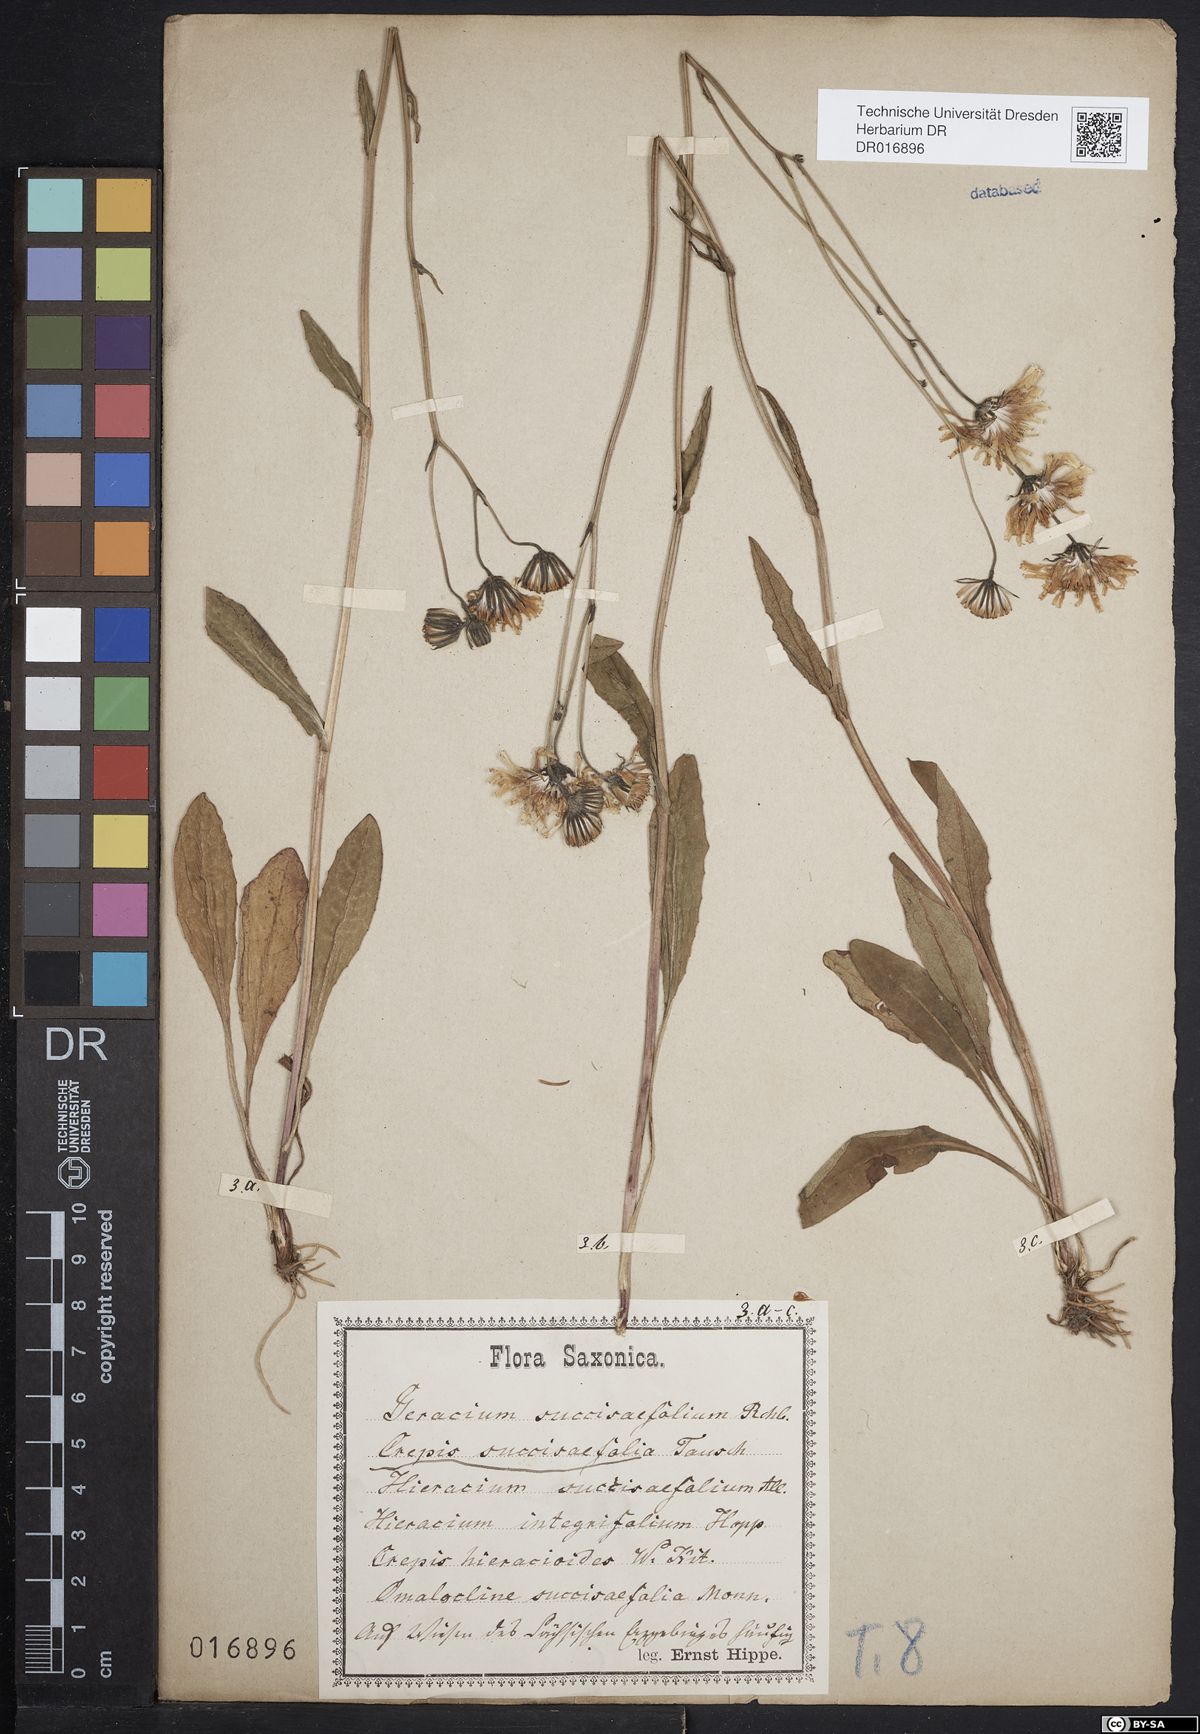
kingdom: Plantae
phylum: Tracheophyta
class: Magnoliopsida
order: Asterales
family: Asteraceae
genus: Crepis
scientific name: Crepis mollis
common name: Northern hawk's-beard
